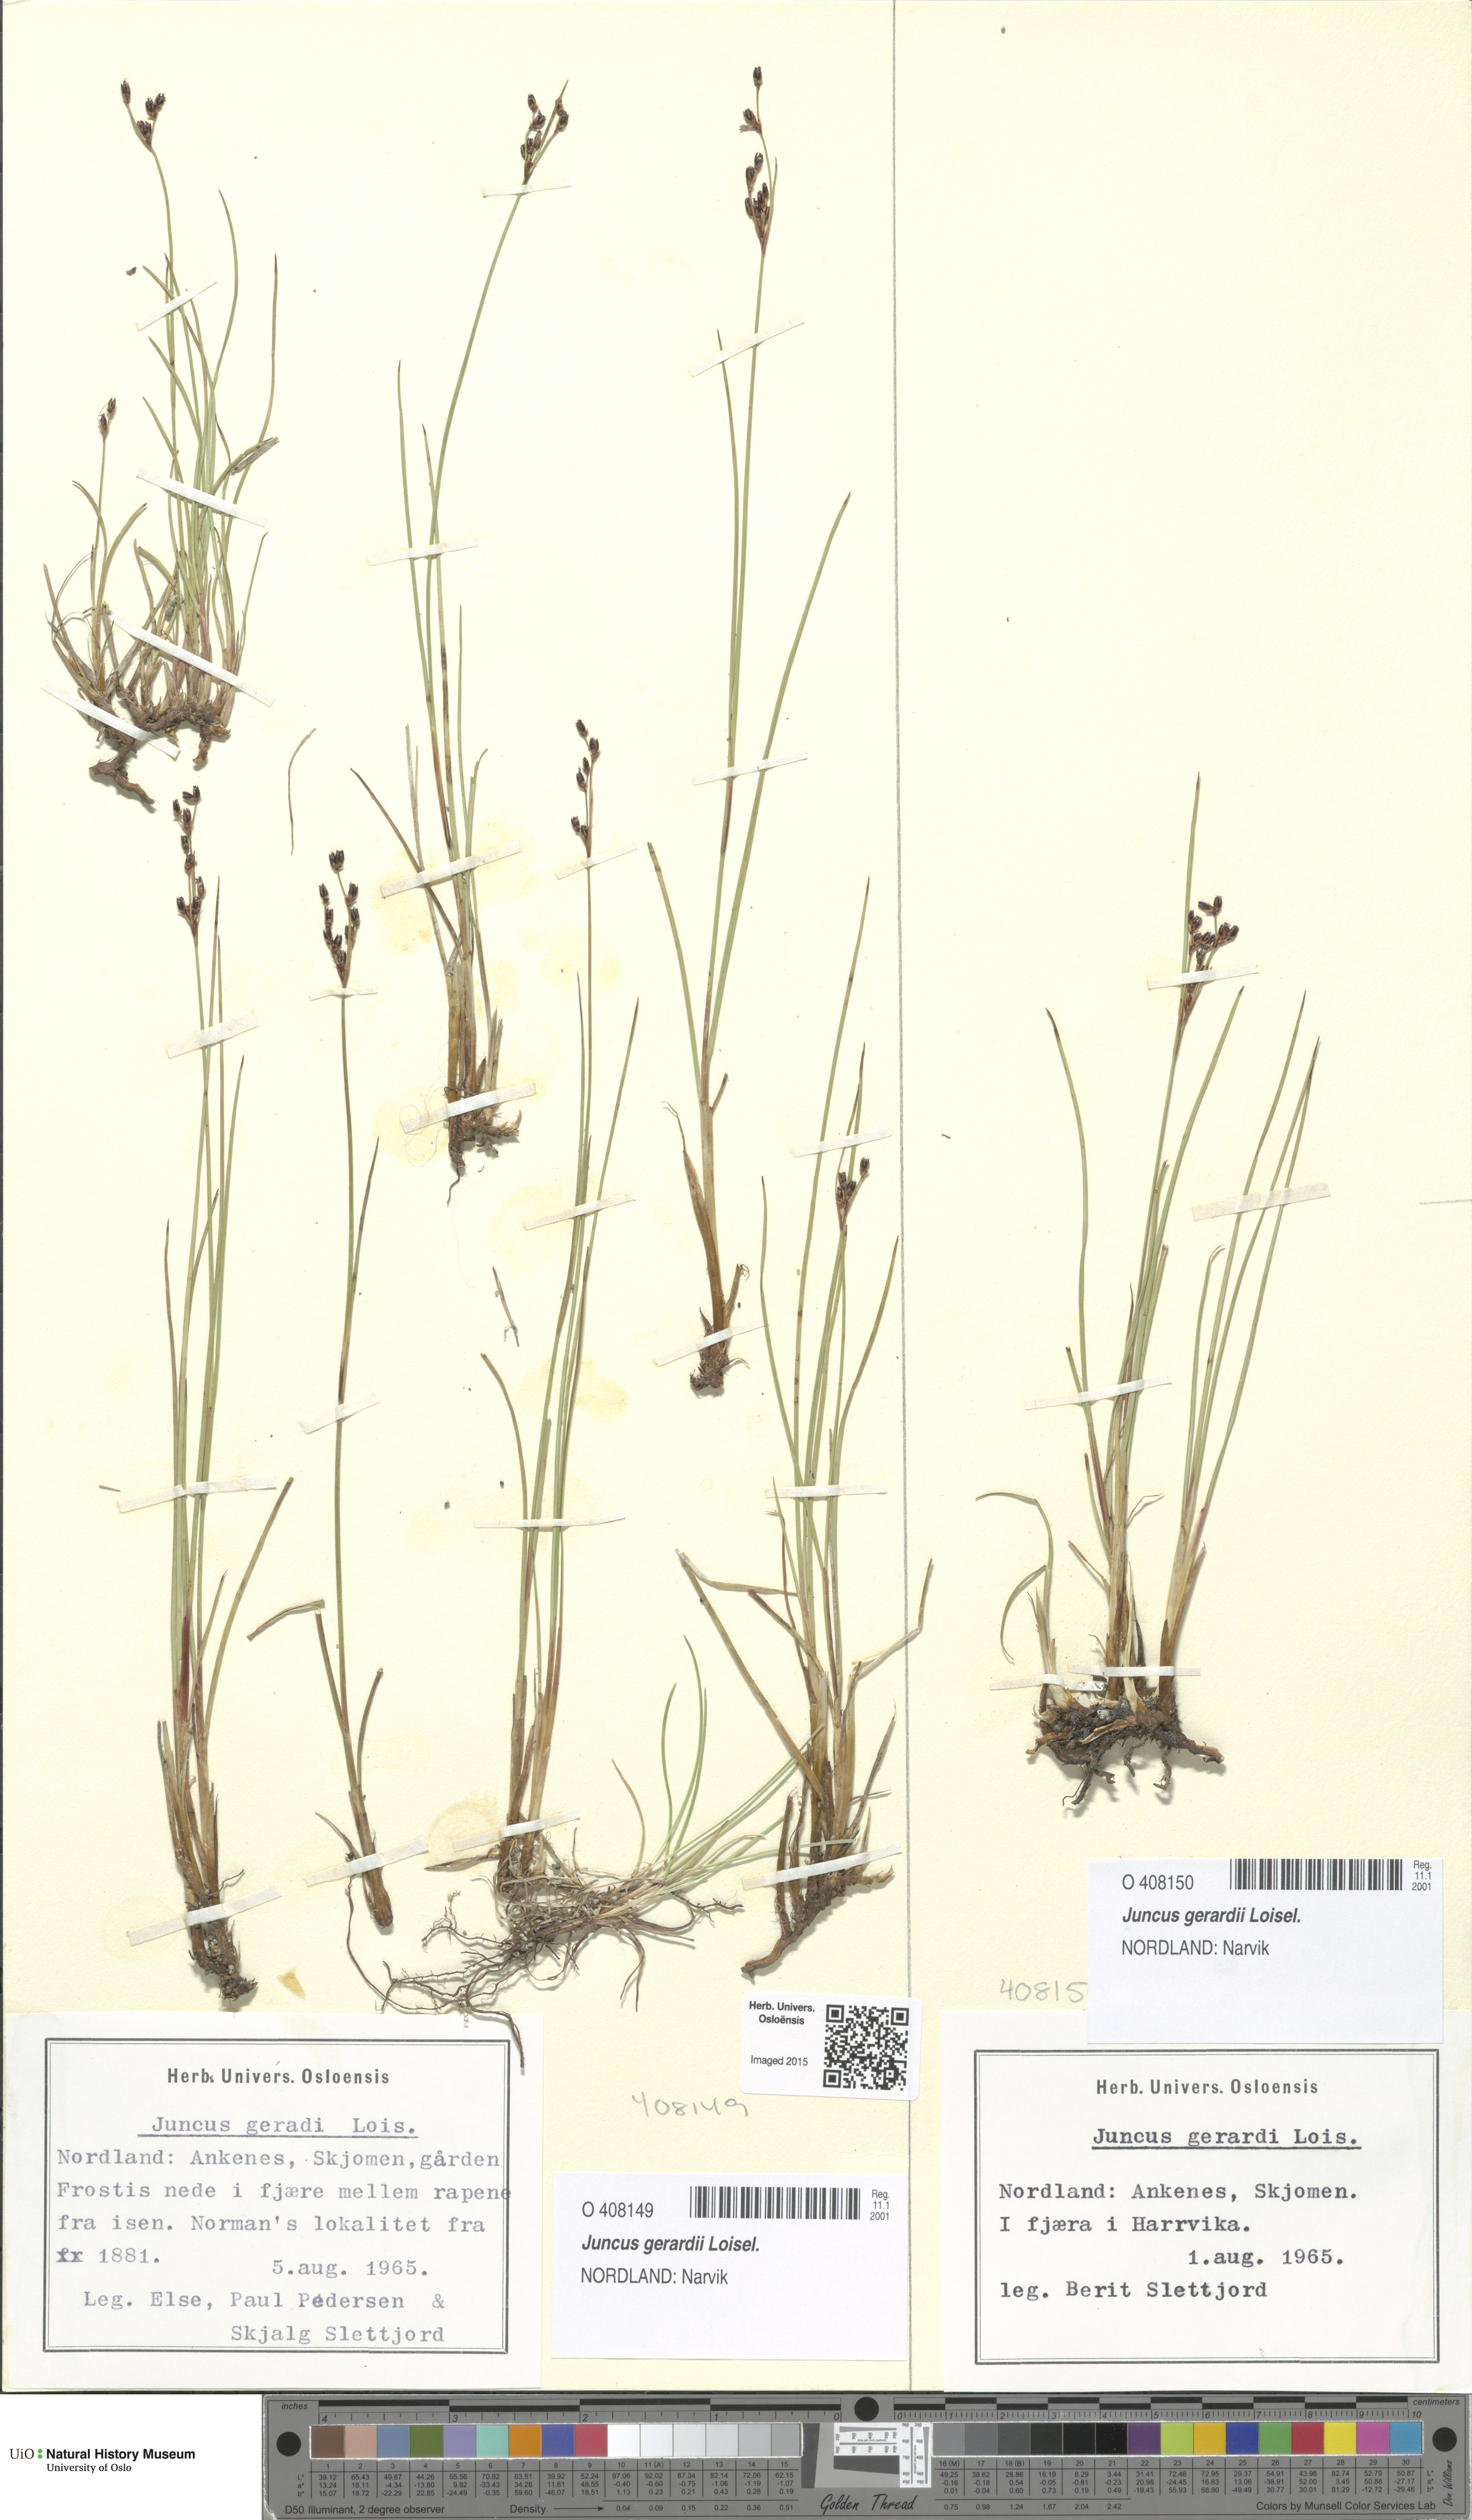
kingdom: Plantae
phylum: Tracheophyta
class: Liliopsida
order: Poales
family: Juncaceae
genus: Juncus
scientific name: Juncus gerardi
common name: Saltmarsh rush
